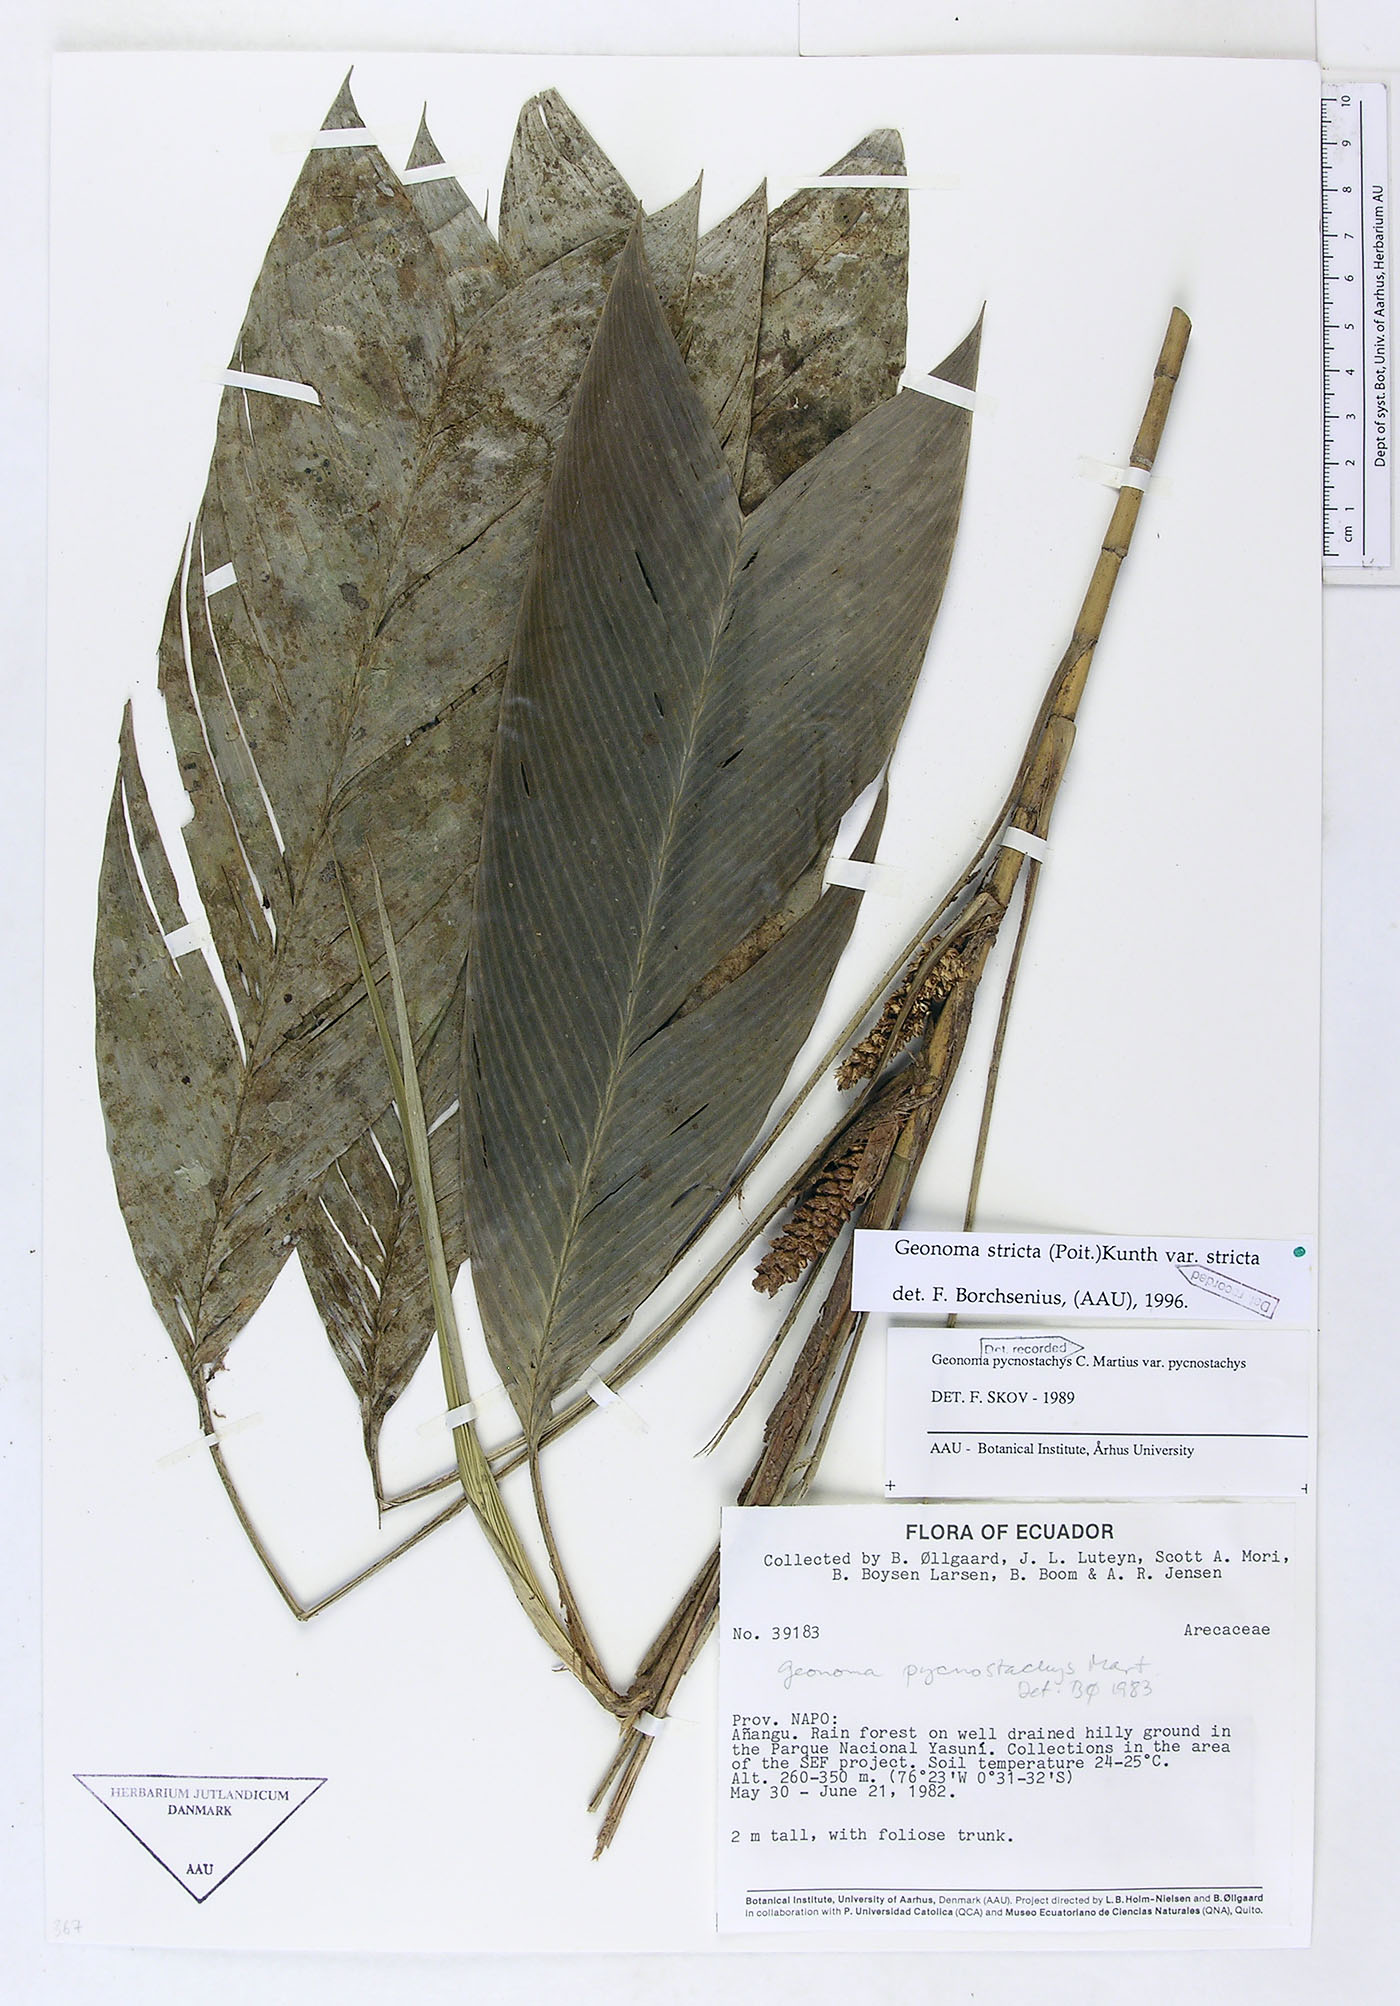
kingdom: Plantae
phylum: Tracheophyta
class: Liliopsida
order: Arecales
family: Arecaceae
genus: Geonoma
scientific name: Geonoma stricta
